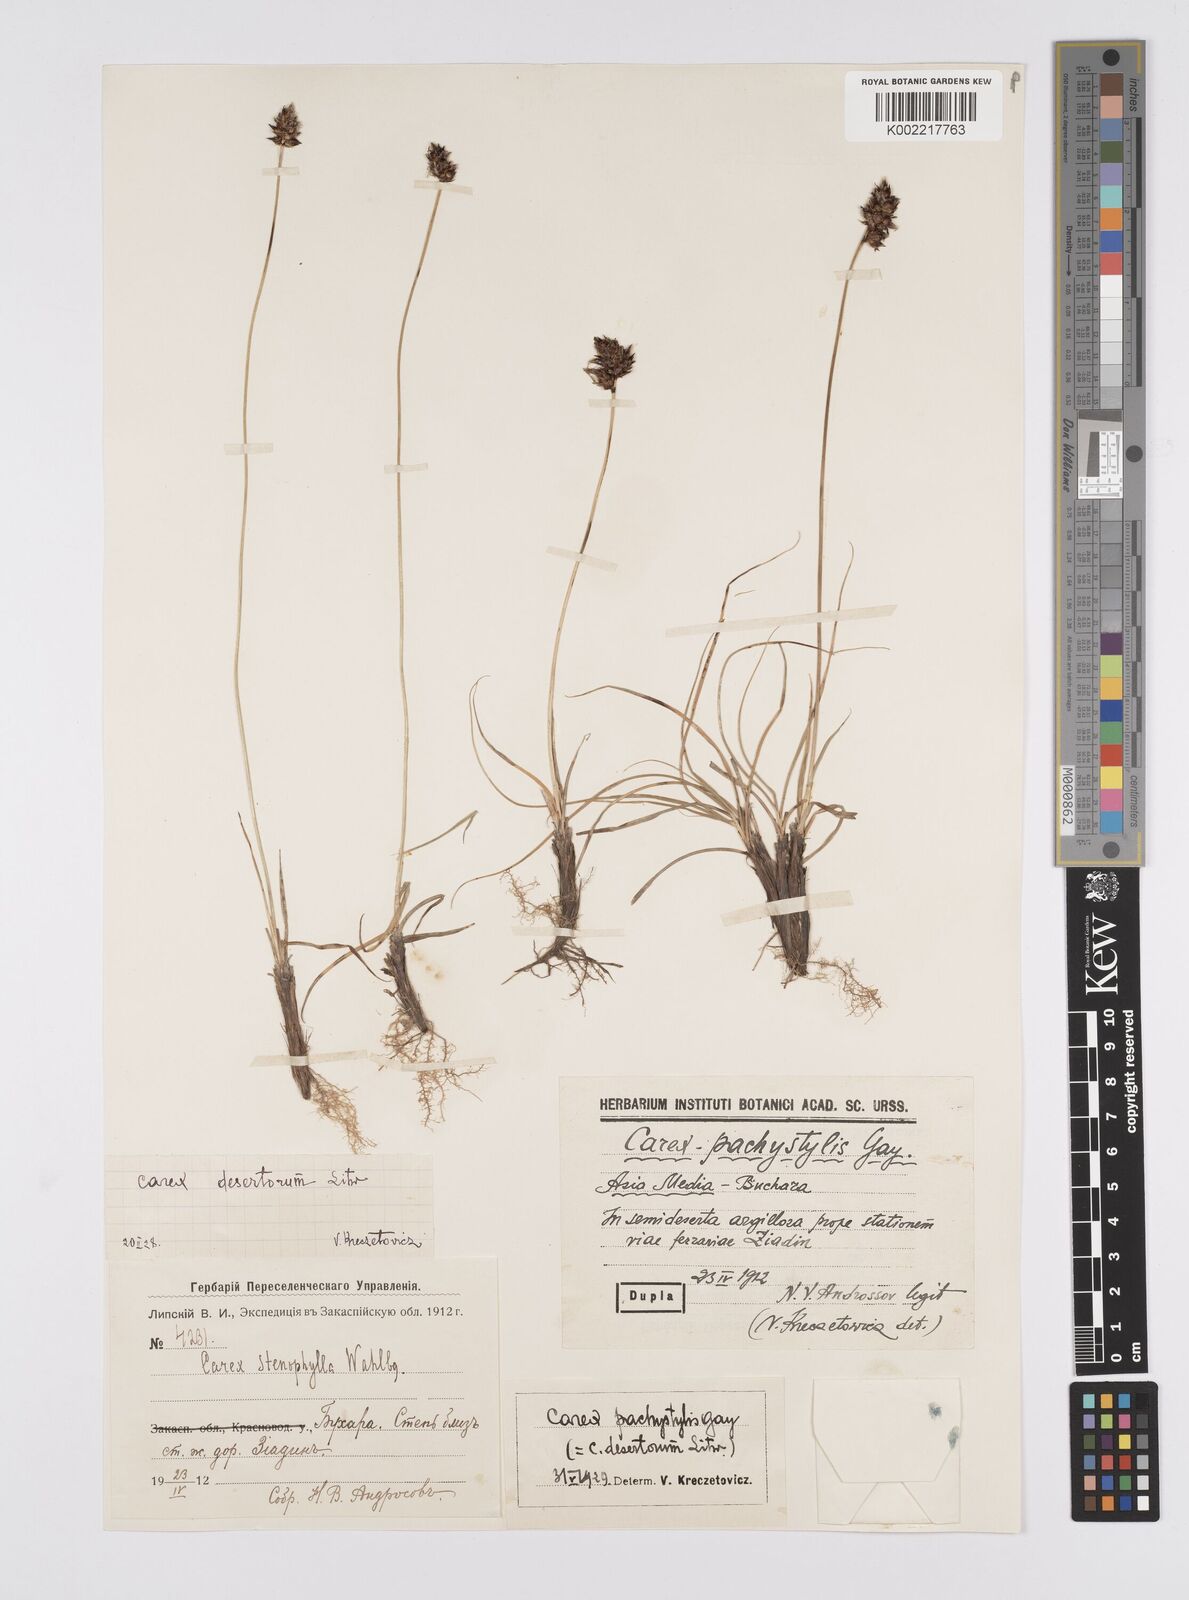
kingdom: Plantae
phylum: Tracheophyta
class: Liliopsida
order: Poales
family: Cyperaceae
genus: Carex
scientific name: Carex stenophylla
